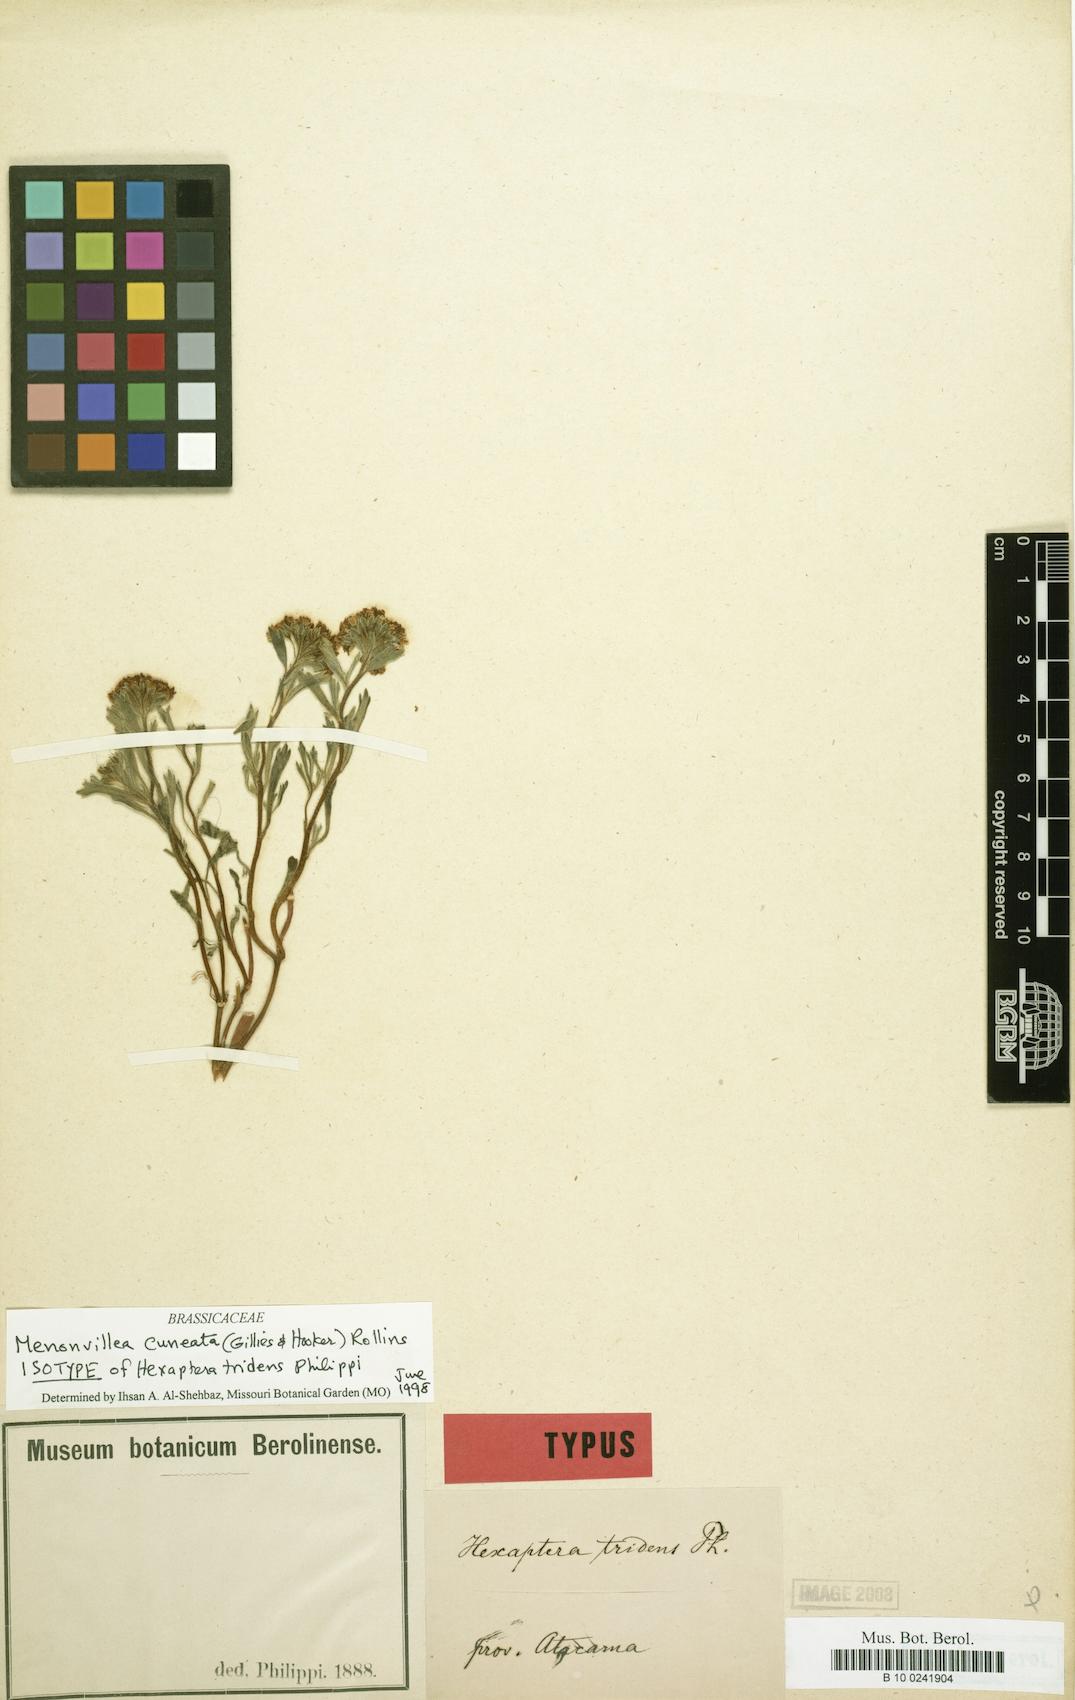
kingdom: Plantae
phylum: Tracheophyta
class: Magnoliopsida
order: Brassicales
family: Brassicaceae
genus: Menonvillea
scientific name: Menonvillea cuneata
